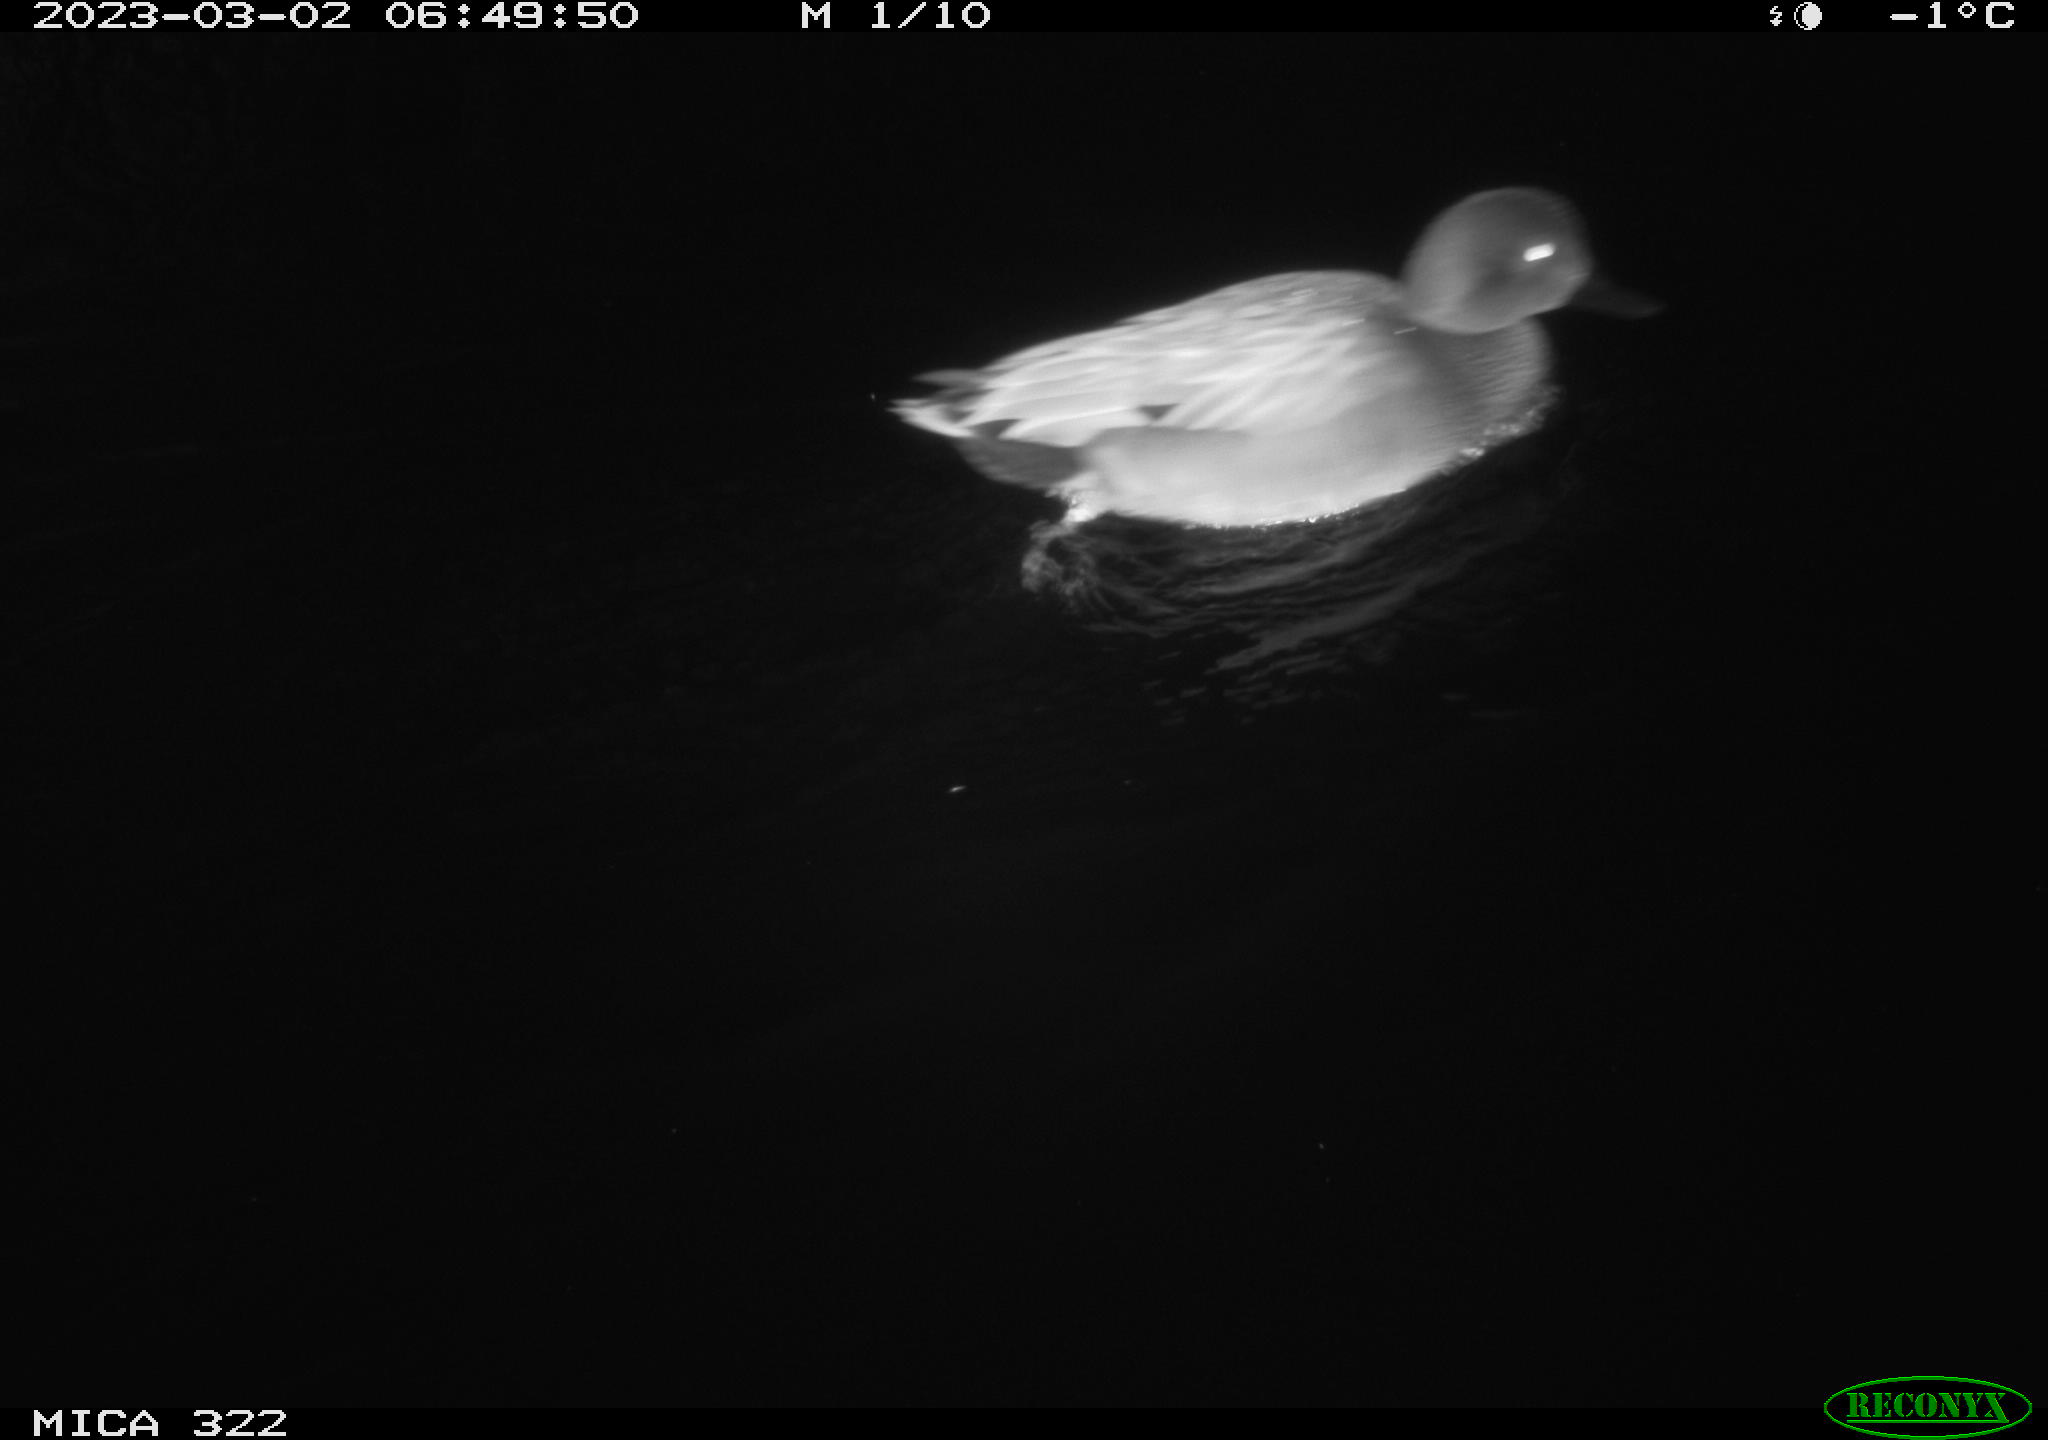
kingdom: Animalia
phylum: Chordata
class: Aves
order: Anseriformes
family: Anatidae
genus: Anas
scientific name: Anas
